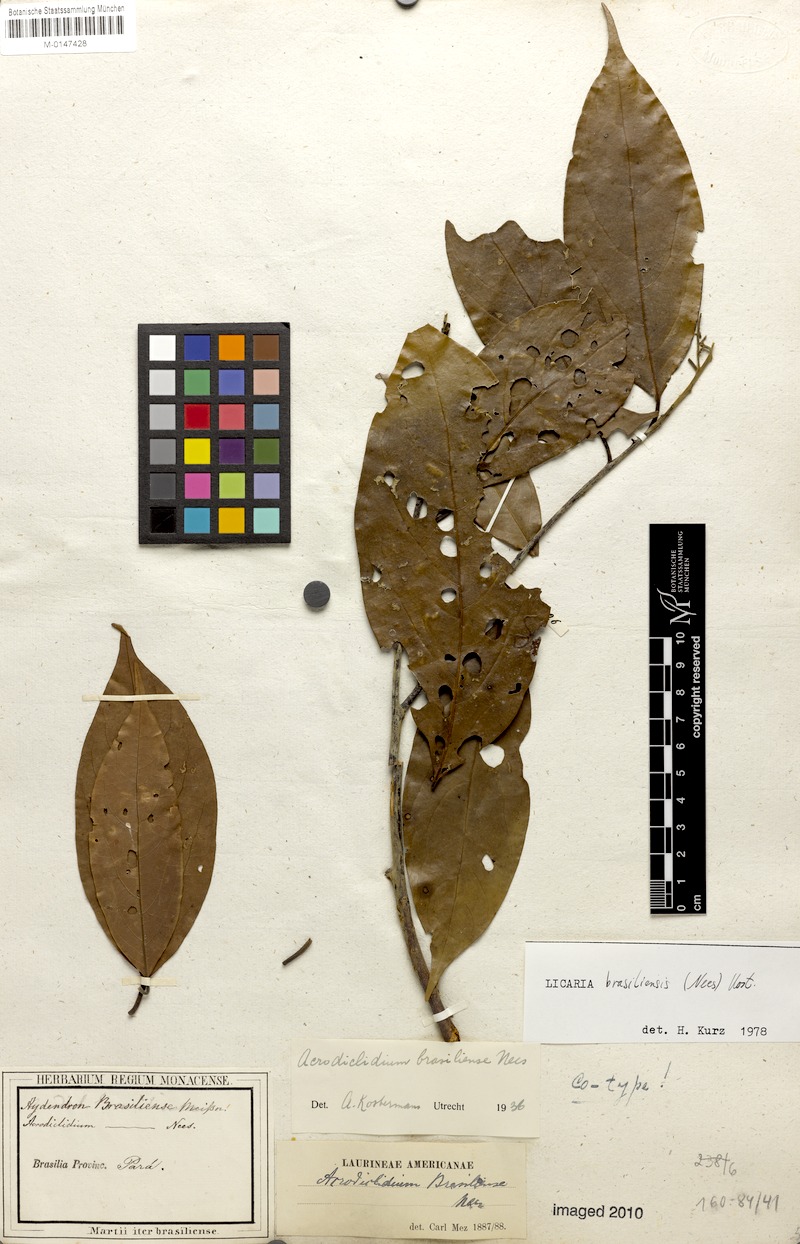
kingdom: Plantae
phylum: Tracheophyta
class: Magnoliopsida
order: Laurales
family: Lauraceae
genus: Licaria
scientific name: Licaria brasiliensis
